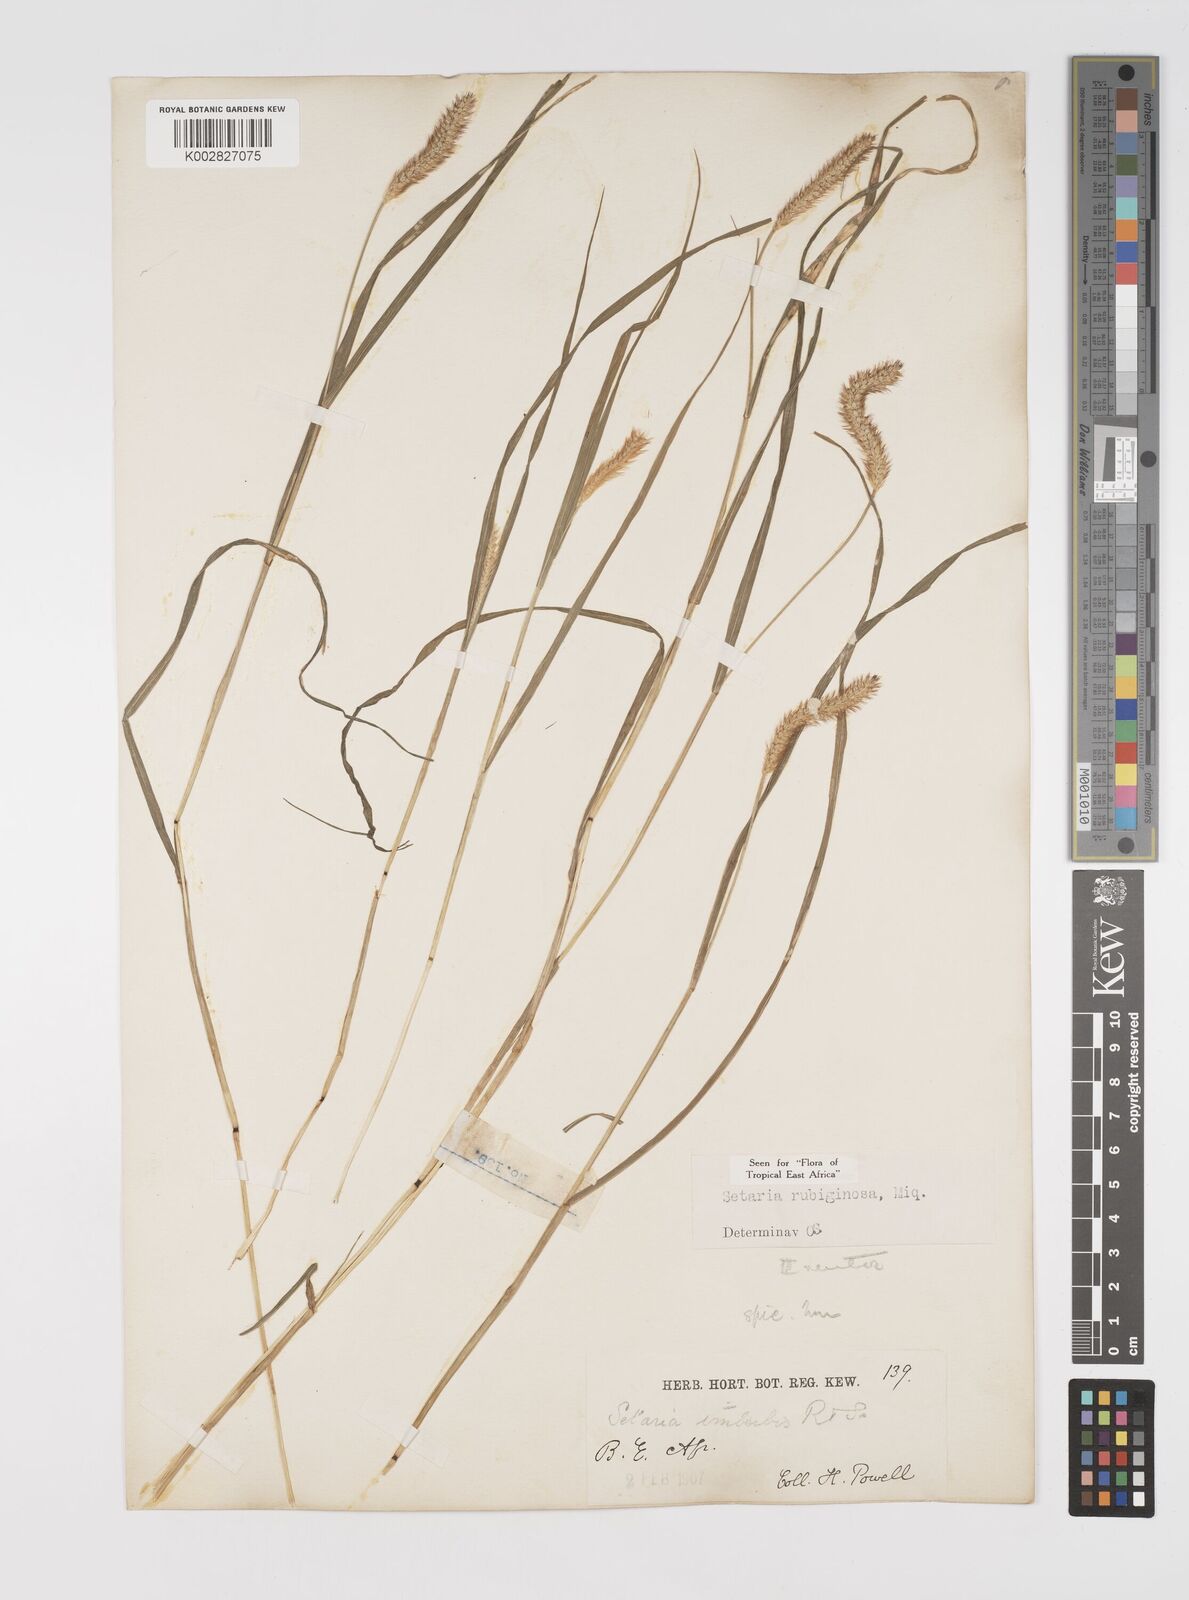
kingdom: Plantae
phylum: Tracheophyta
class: Liliopsida
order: Poales
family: Poaceae
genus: Setaria
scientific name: Setaria pumila
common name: Yellow bristle-grass
